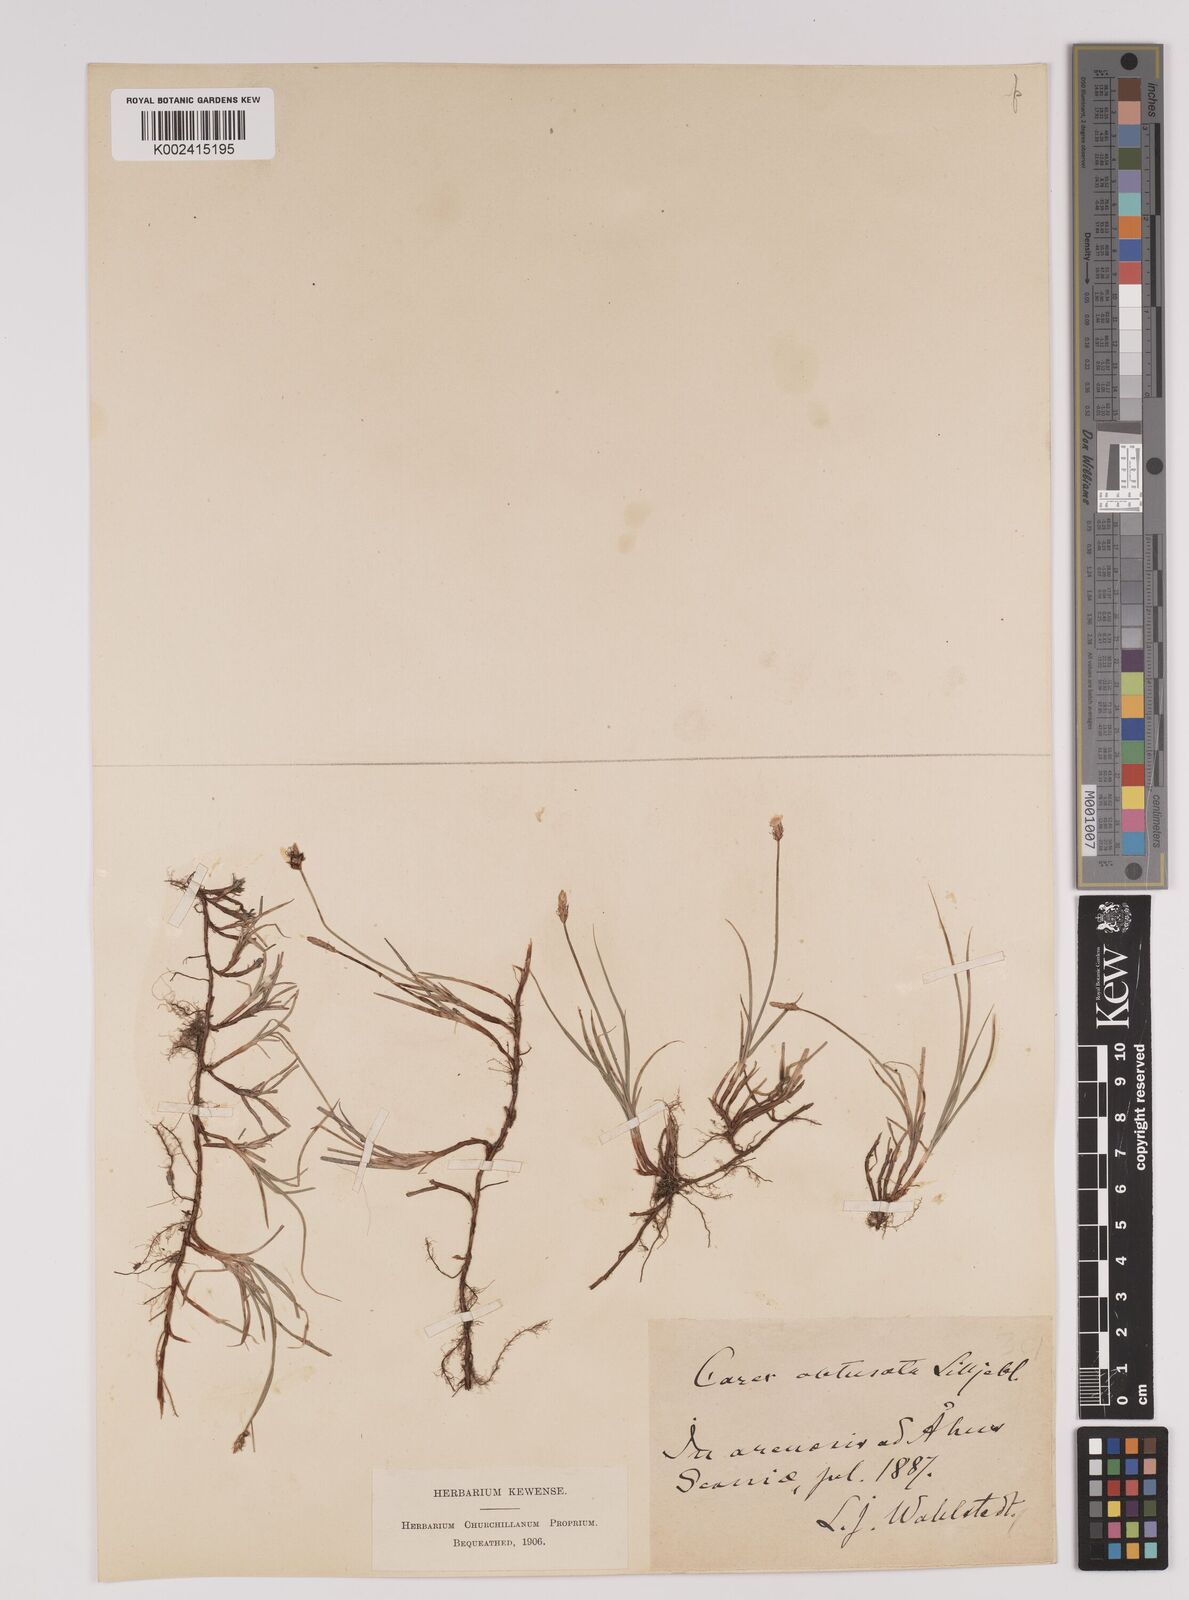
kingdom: Plantae
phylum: Tracheophyta
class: Liliopsida
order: Poales
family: Cyperaceae
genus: Carex
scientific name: Carex obtusata
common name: Blunt sedge
